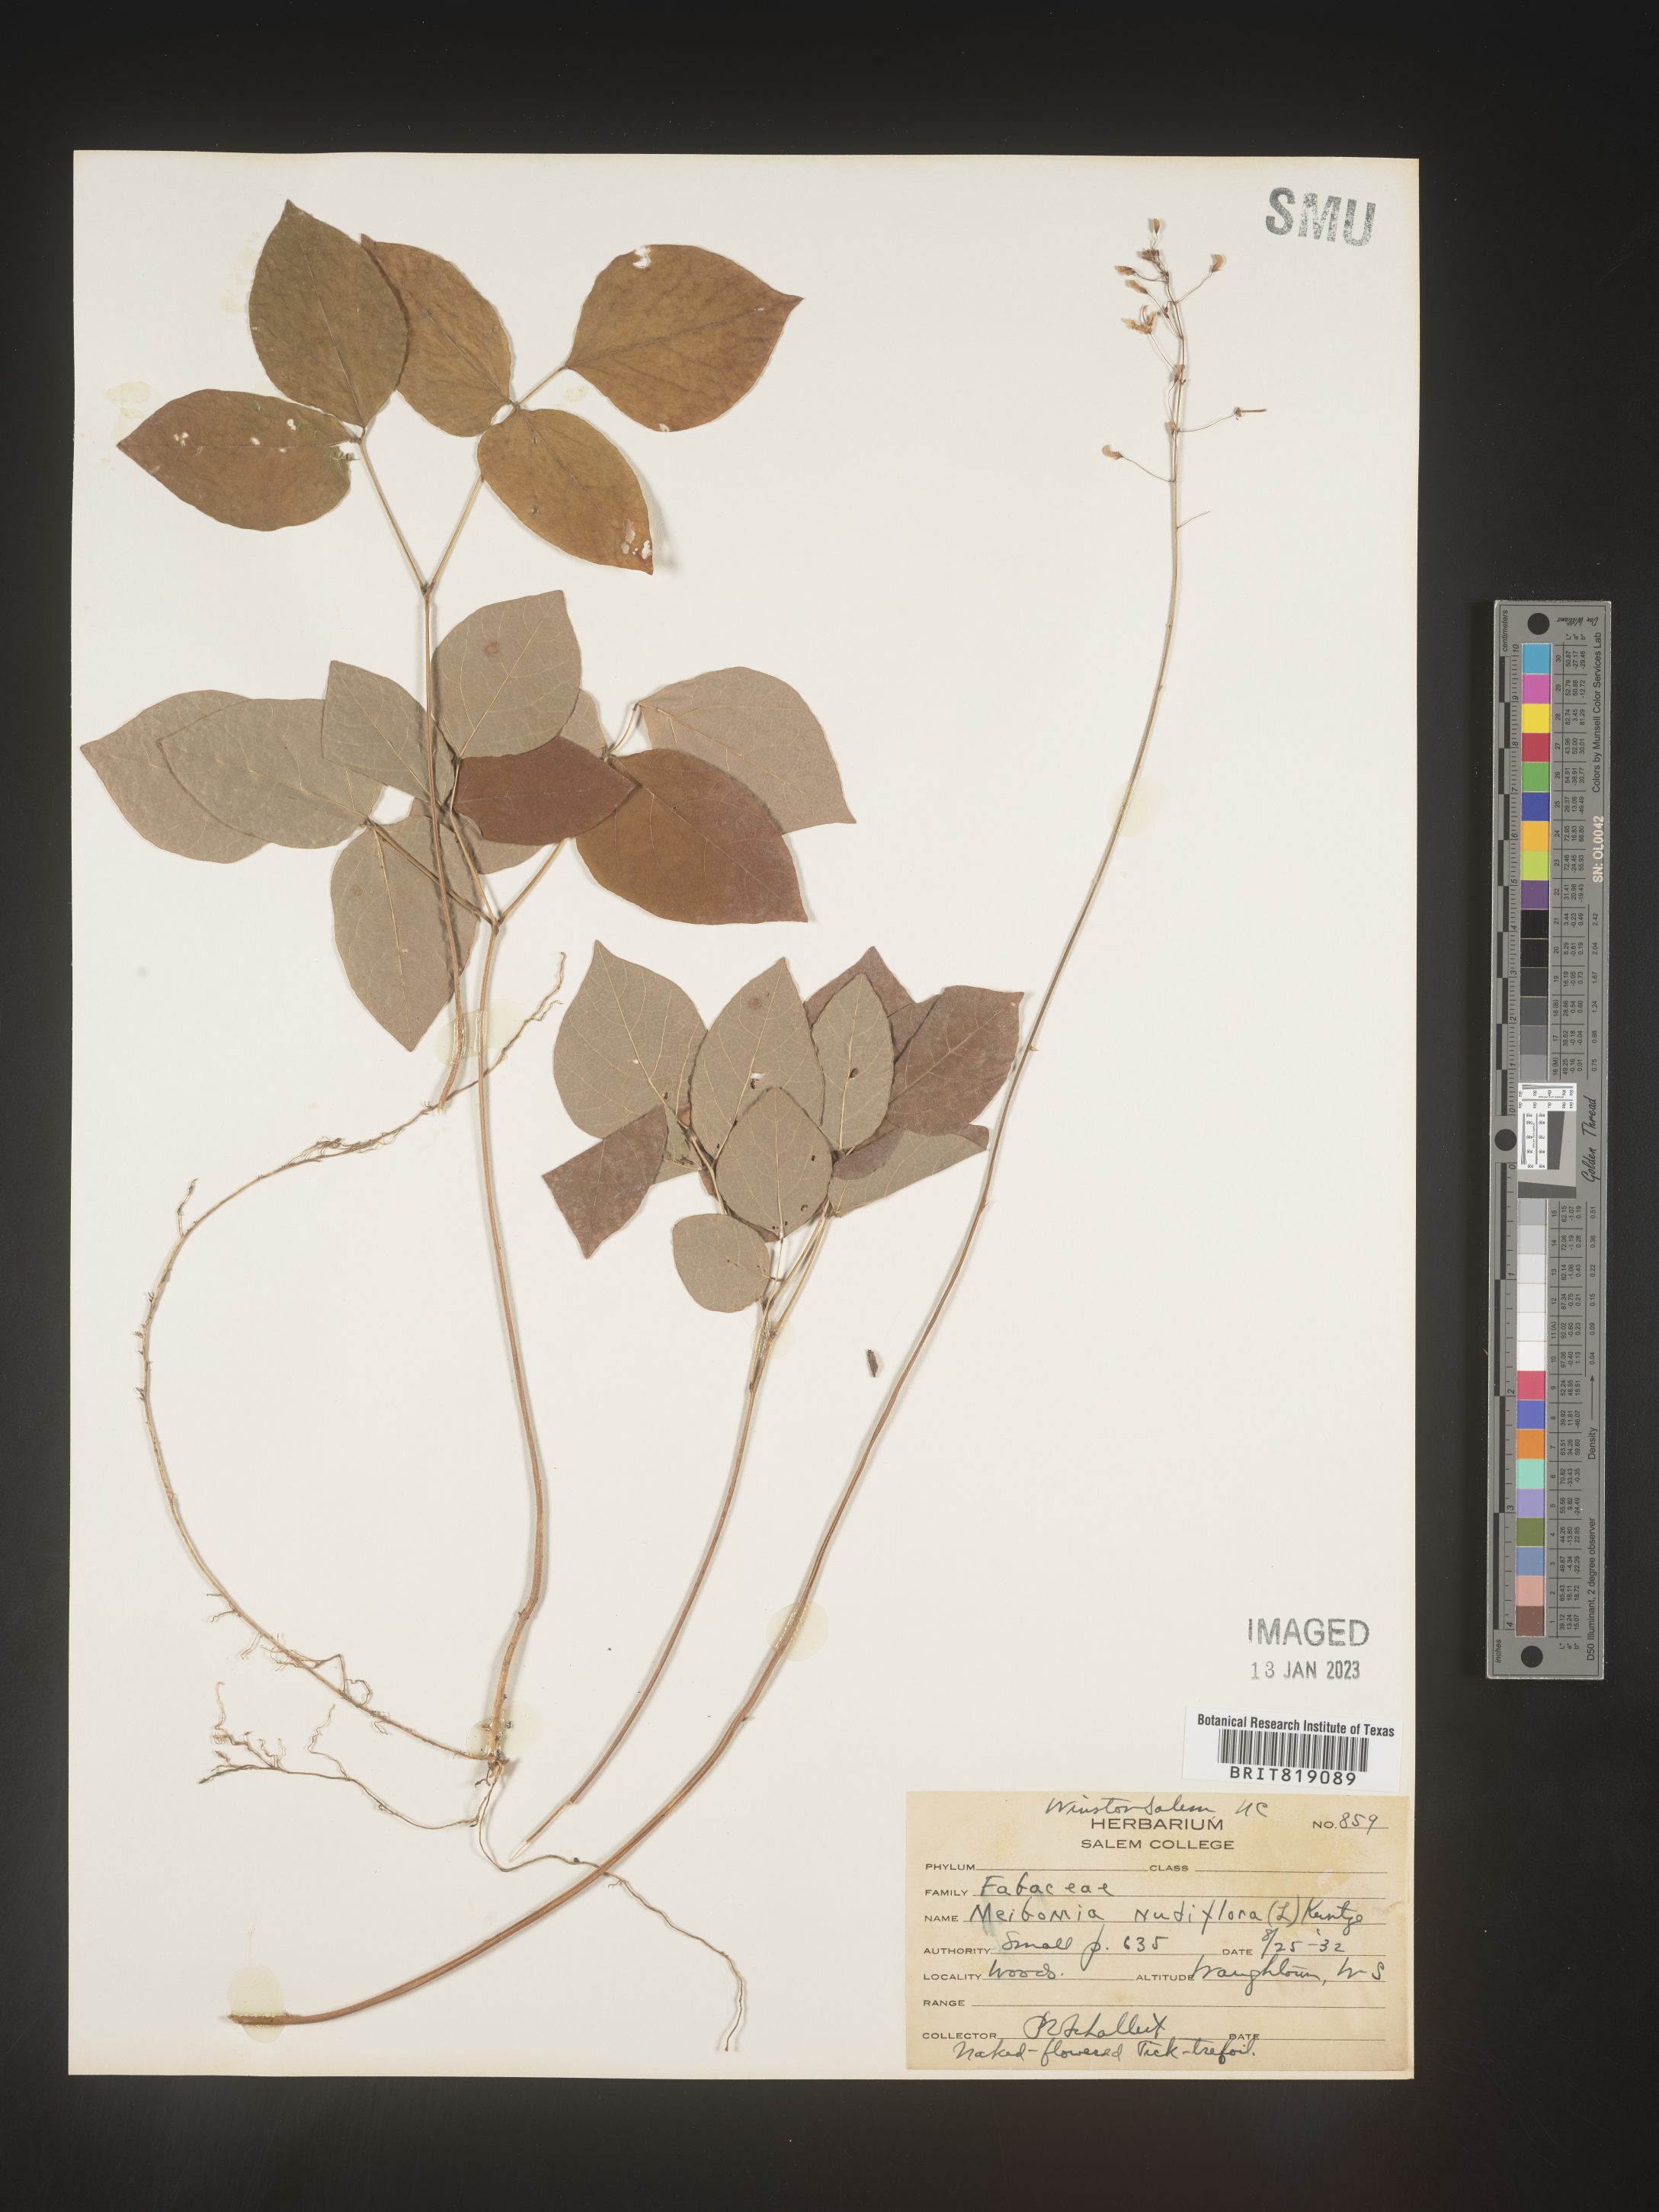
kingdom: Plantae
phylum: Tracheophyta
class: Magnoliopsida
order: Fabales
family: Fabaceae
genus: Hylodesmum
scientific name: Hylodesmum nudiflorum
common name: Bare-stemmed tick-trefoil
